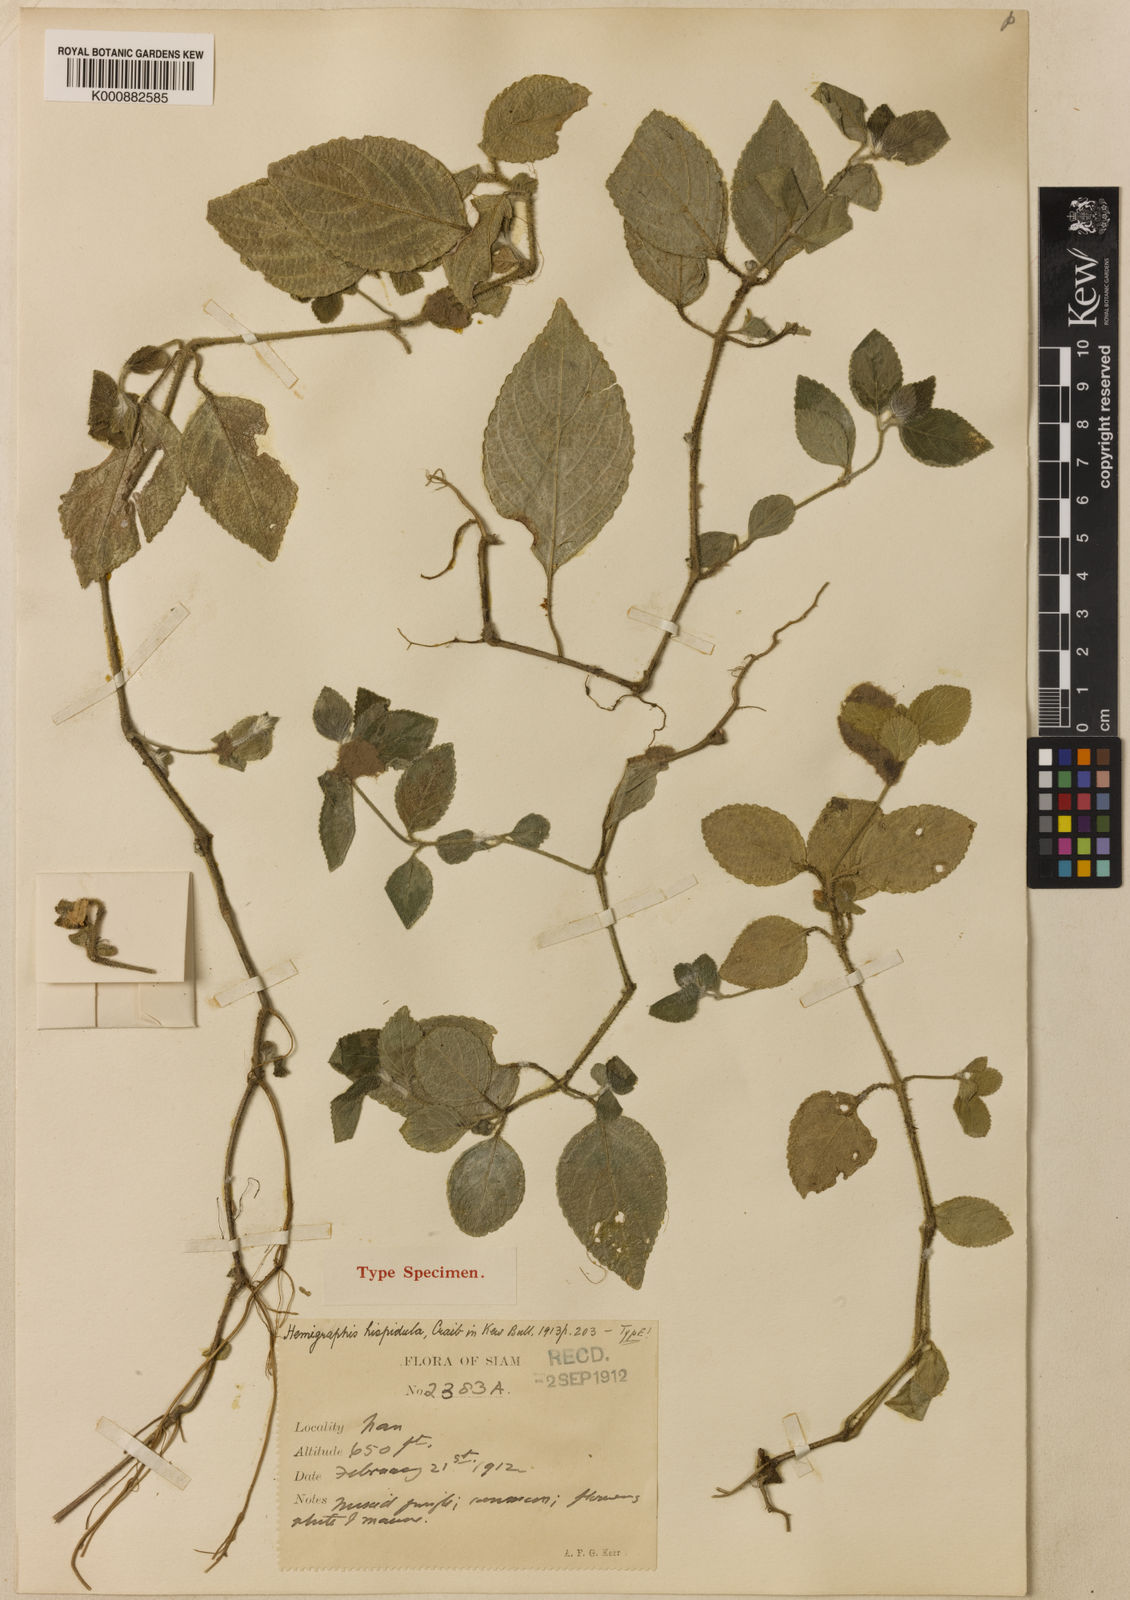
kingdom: Plantae
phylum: Tracheophyta
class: Magnoliopsida
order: Lamiales
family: Acanthaceae
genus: Strobilanthes
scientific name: Strobilanthes serpens
